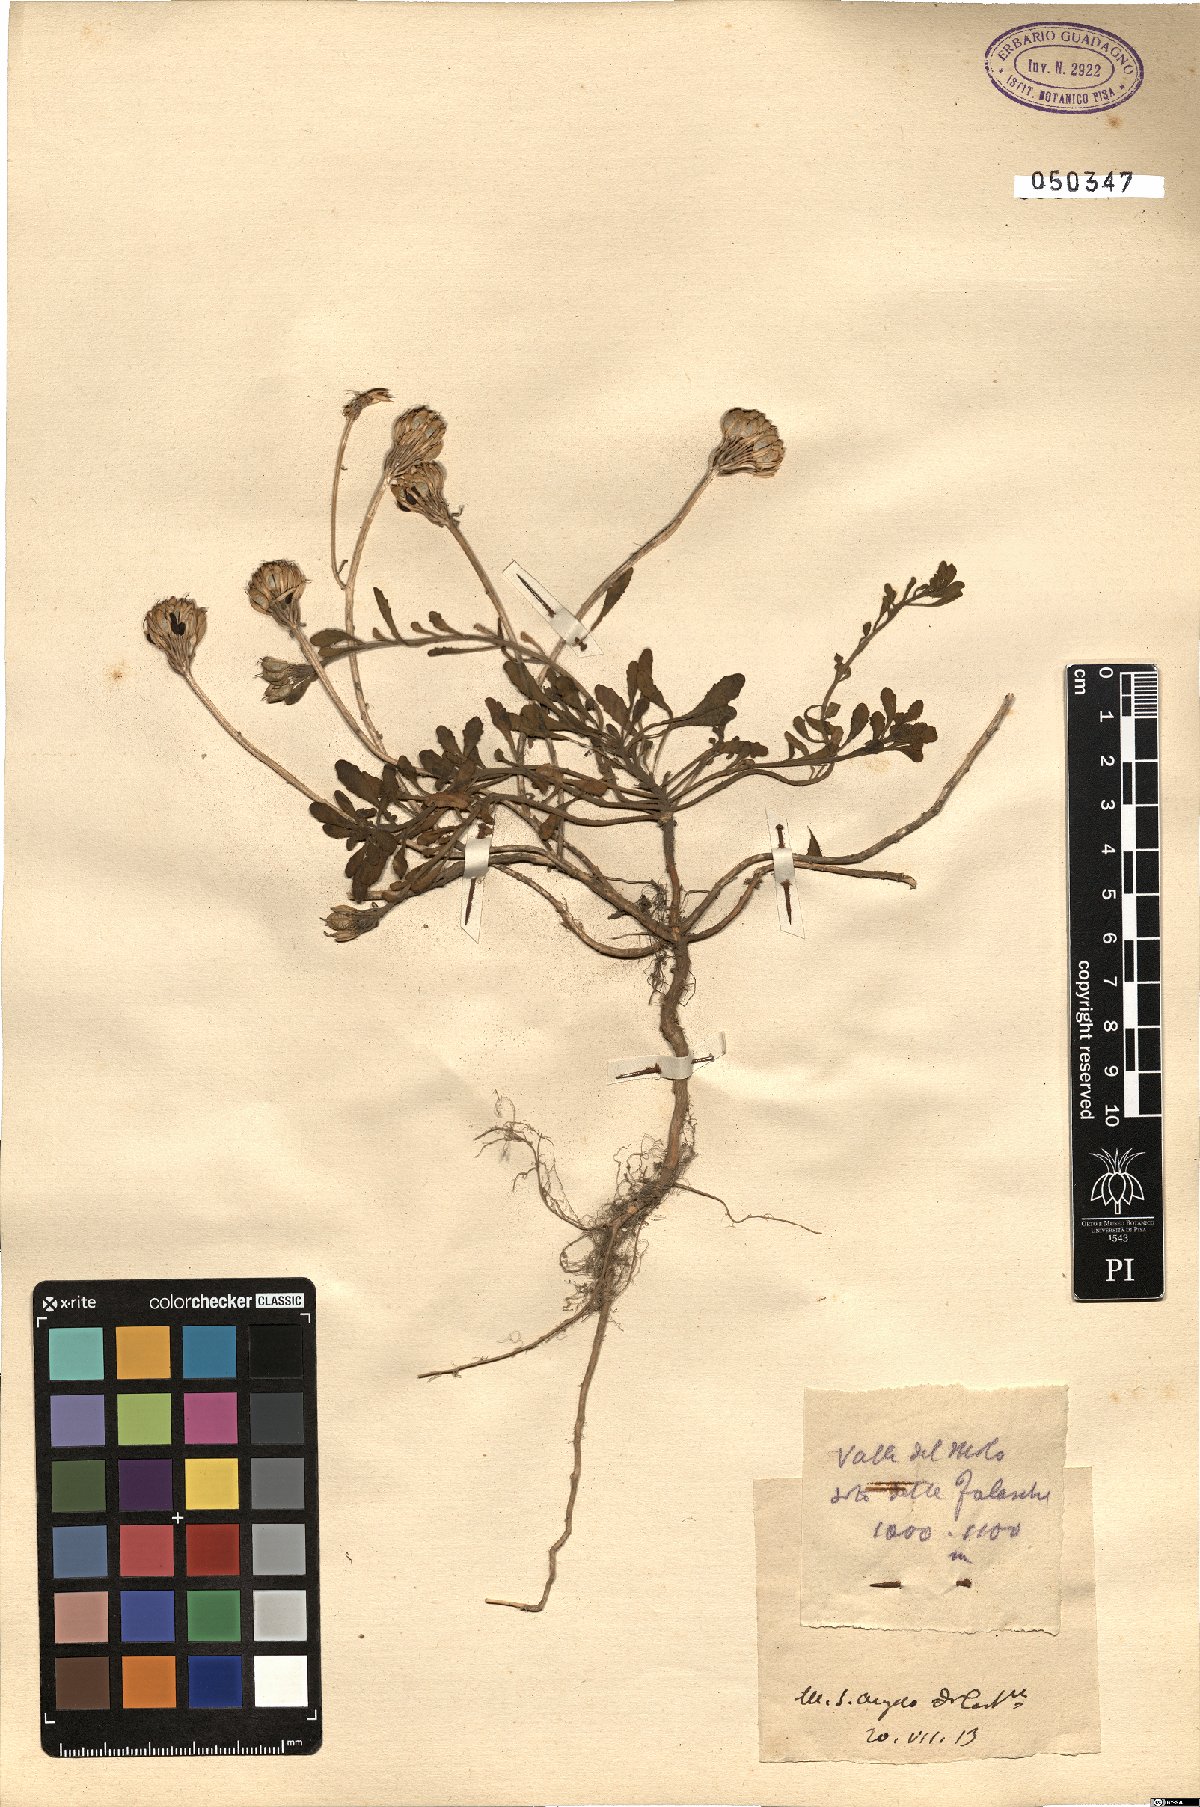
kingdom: Plantae
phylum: Tracheophyta
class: Magnoliopsida
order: Brassicales
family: Brassicaceae
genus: Iberis
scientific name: Iberis
